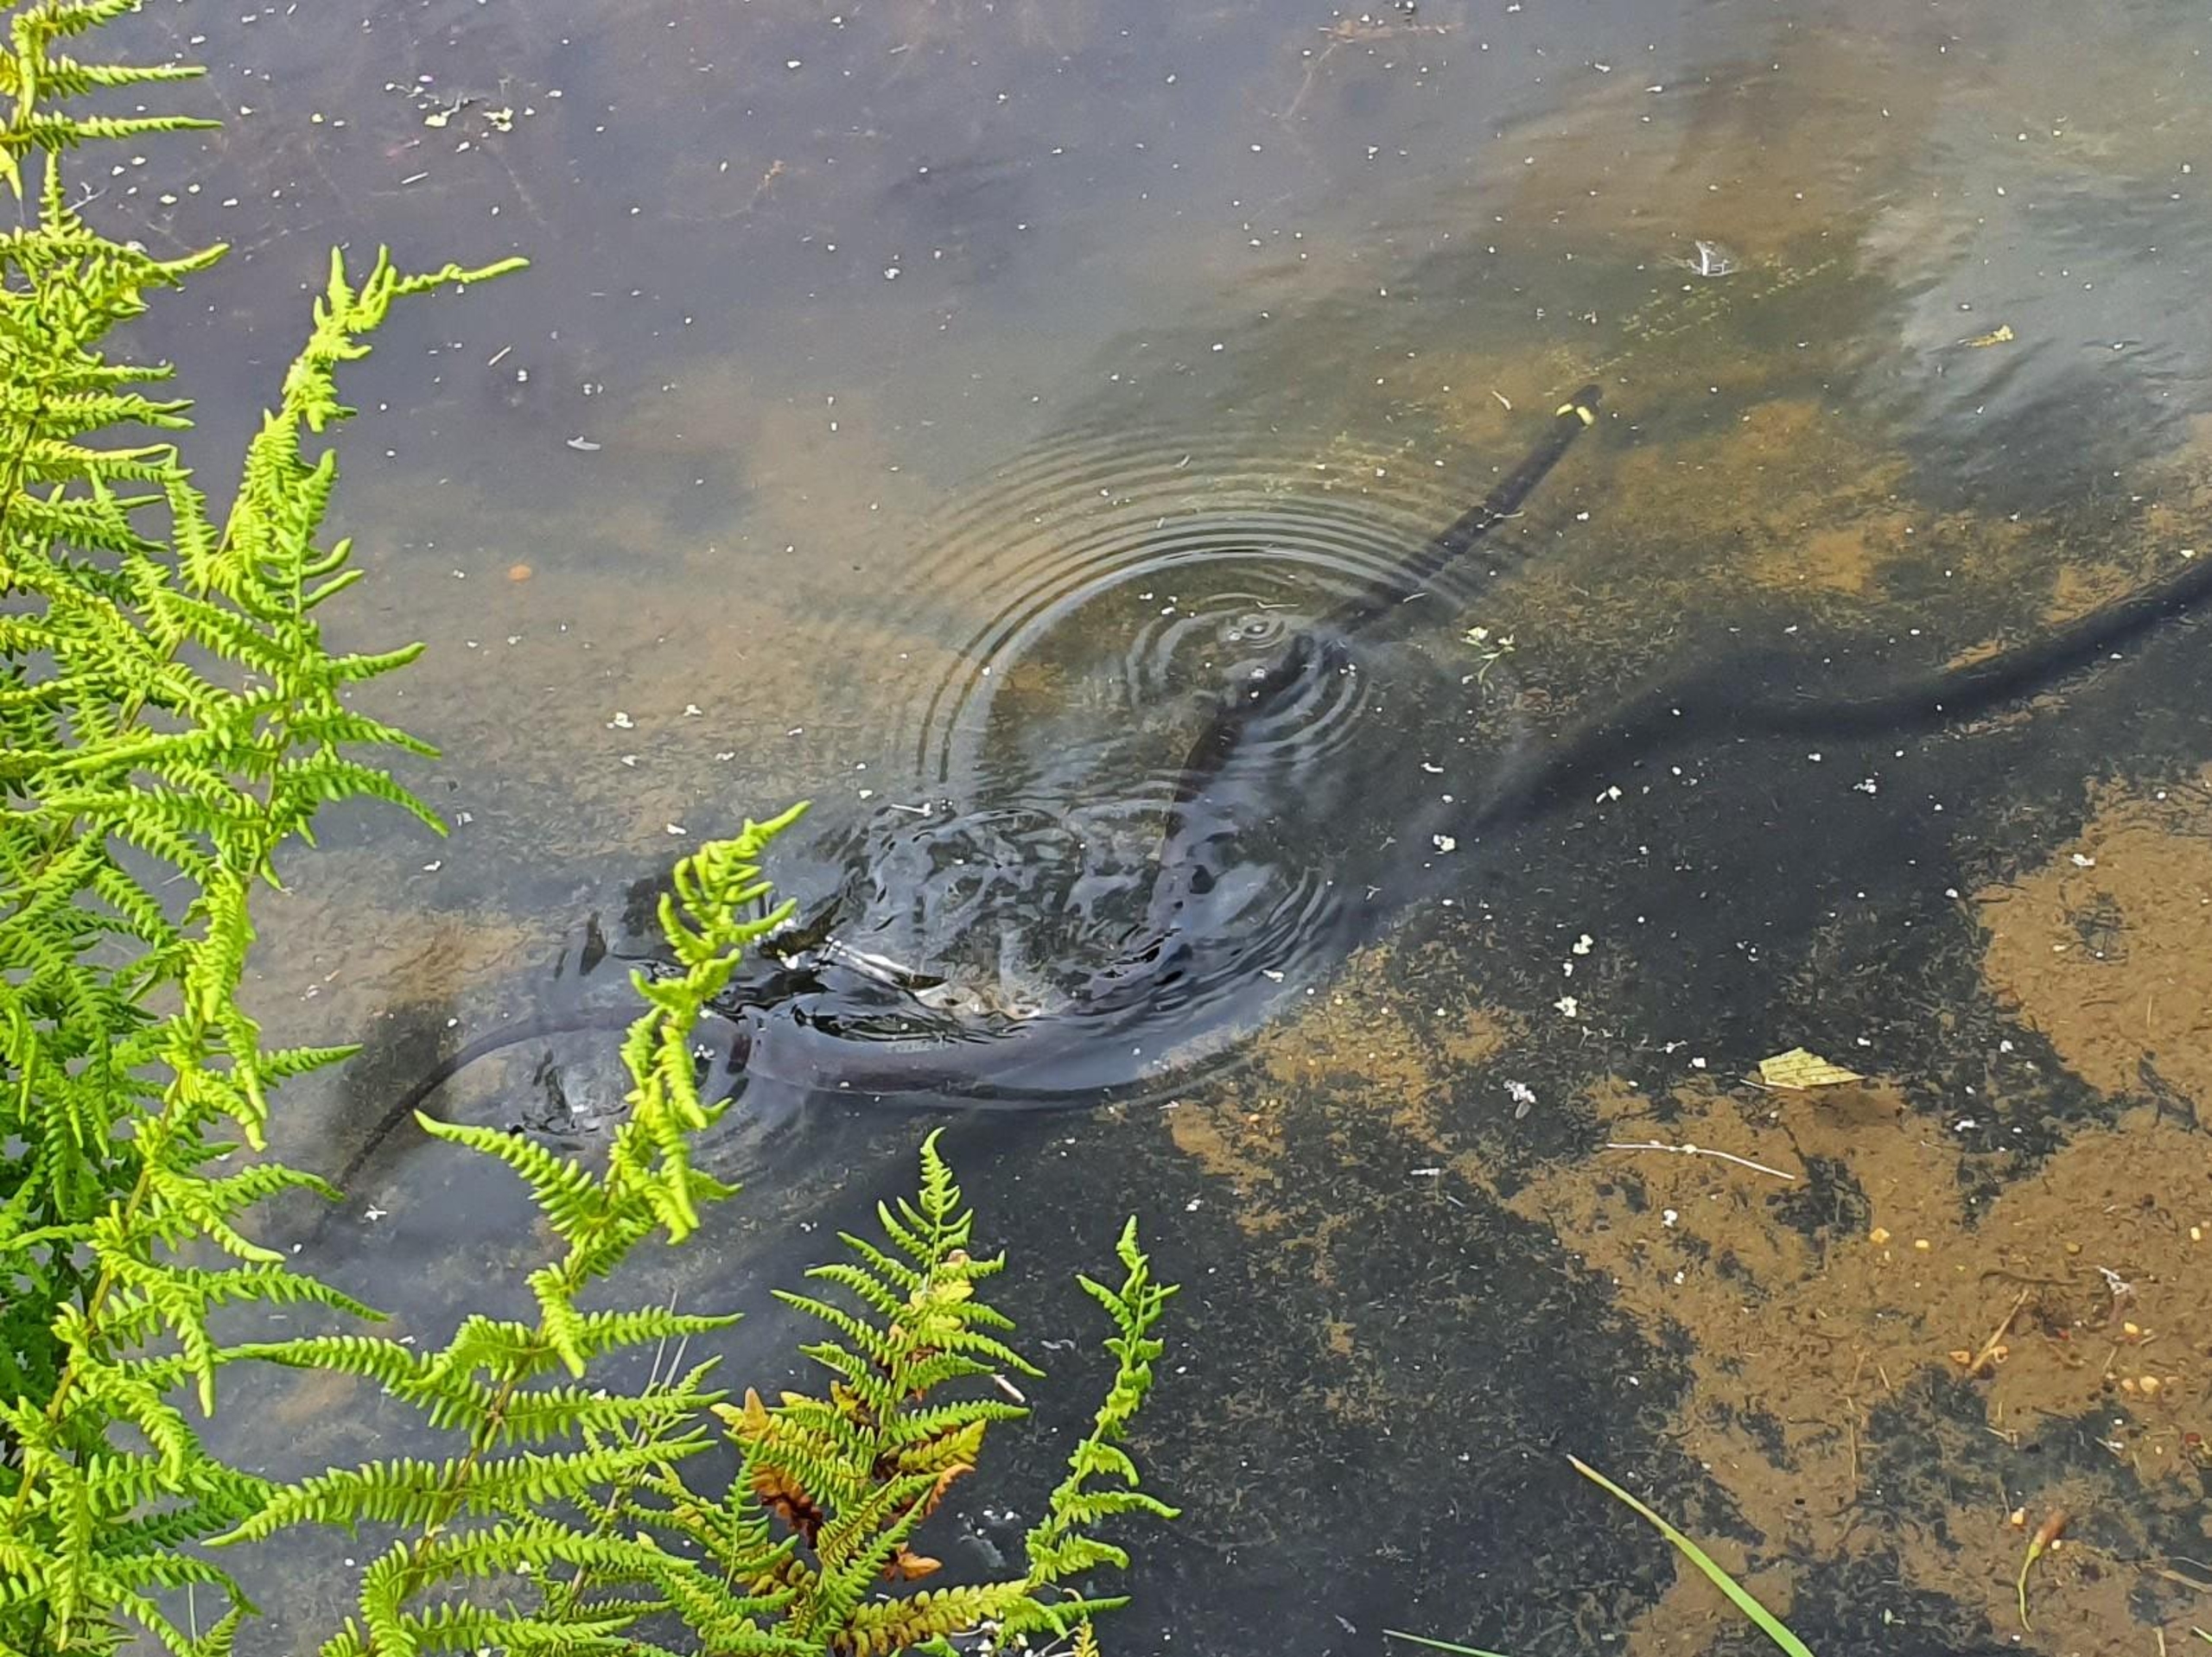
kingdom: Animalia
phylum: Chordata
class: Squamata
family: Colubridae
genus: Natrix
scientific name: Natrix natrix
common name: Snog
